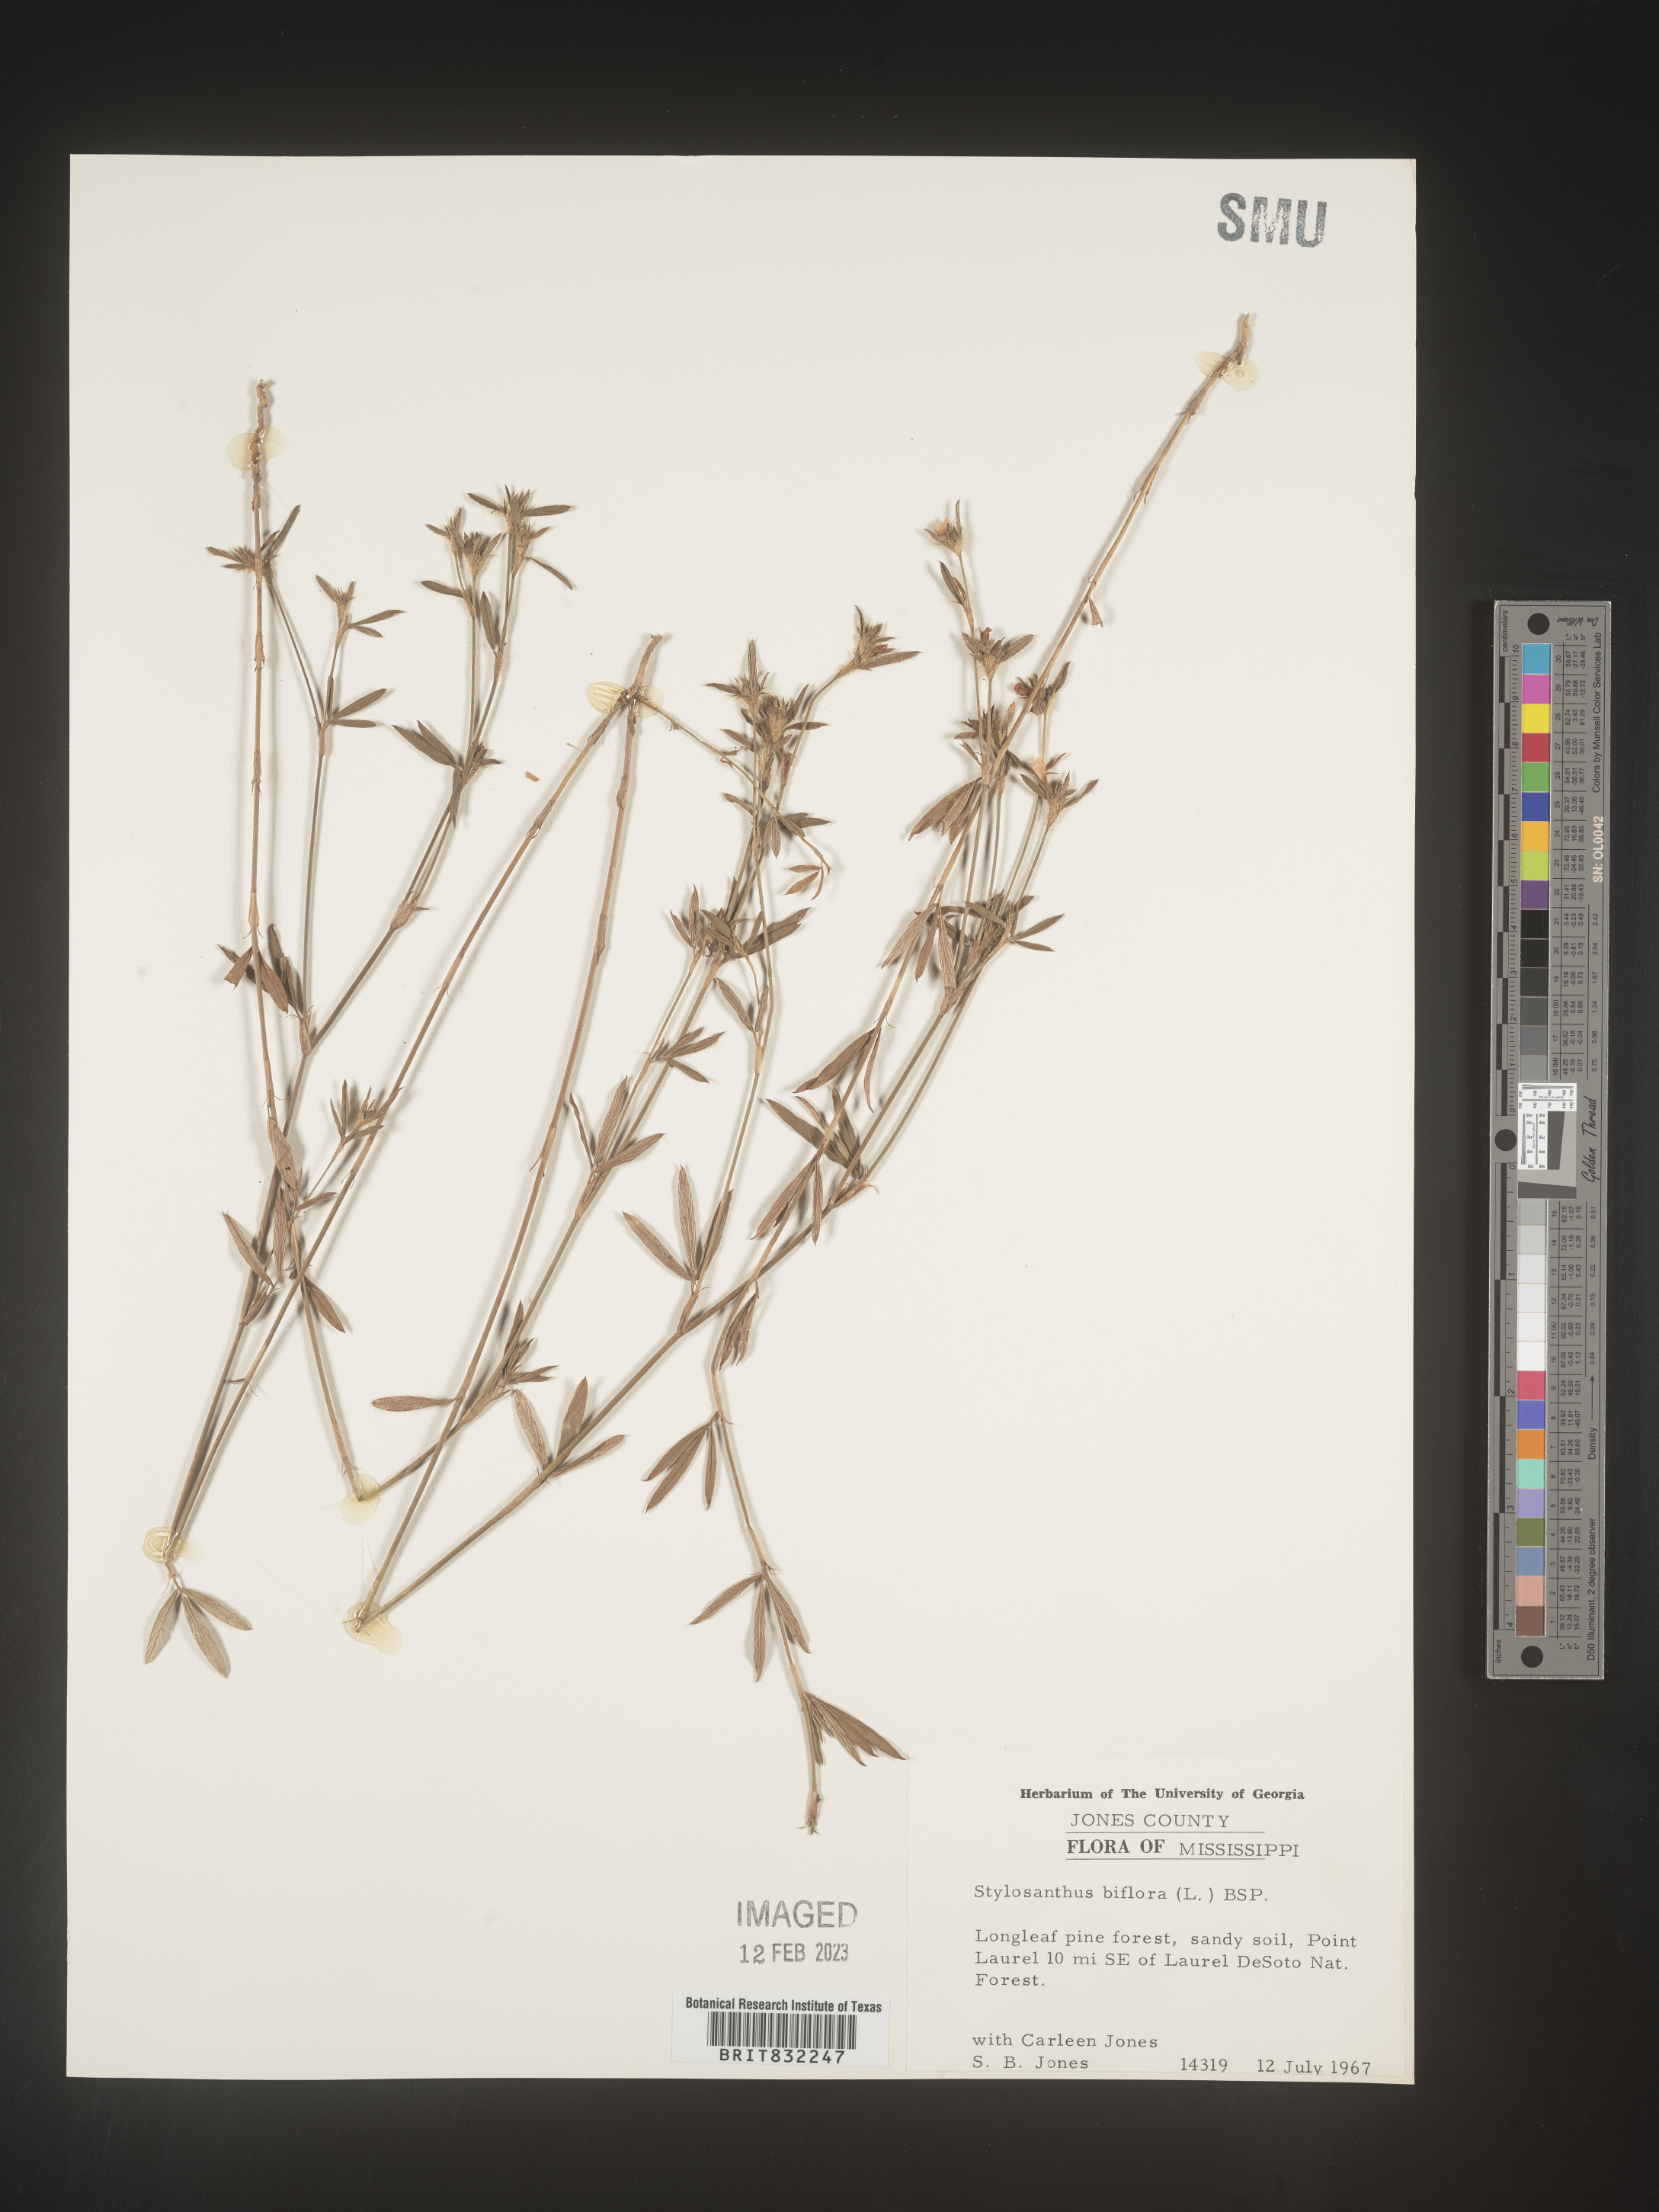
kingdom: Plantae
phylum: Tracheophyta
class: Magnoliopsida
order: Fabales
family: Fabaceae
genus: Stylosanthes
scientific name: Stylosanthes biflora
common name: Two-flower pencil-flower
